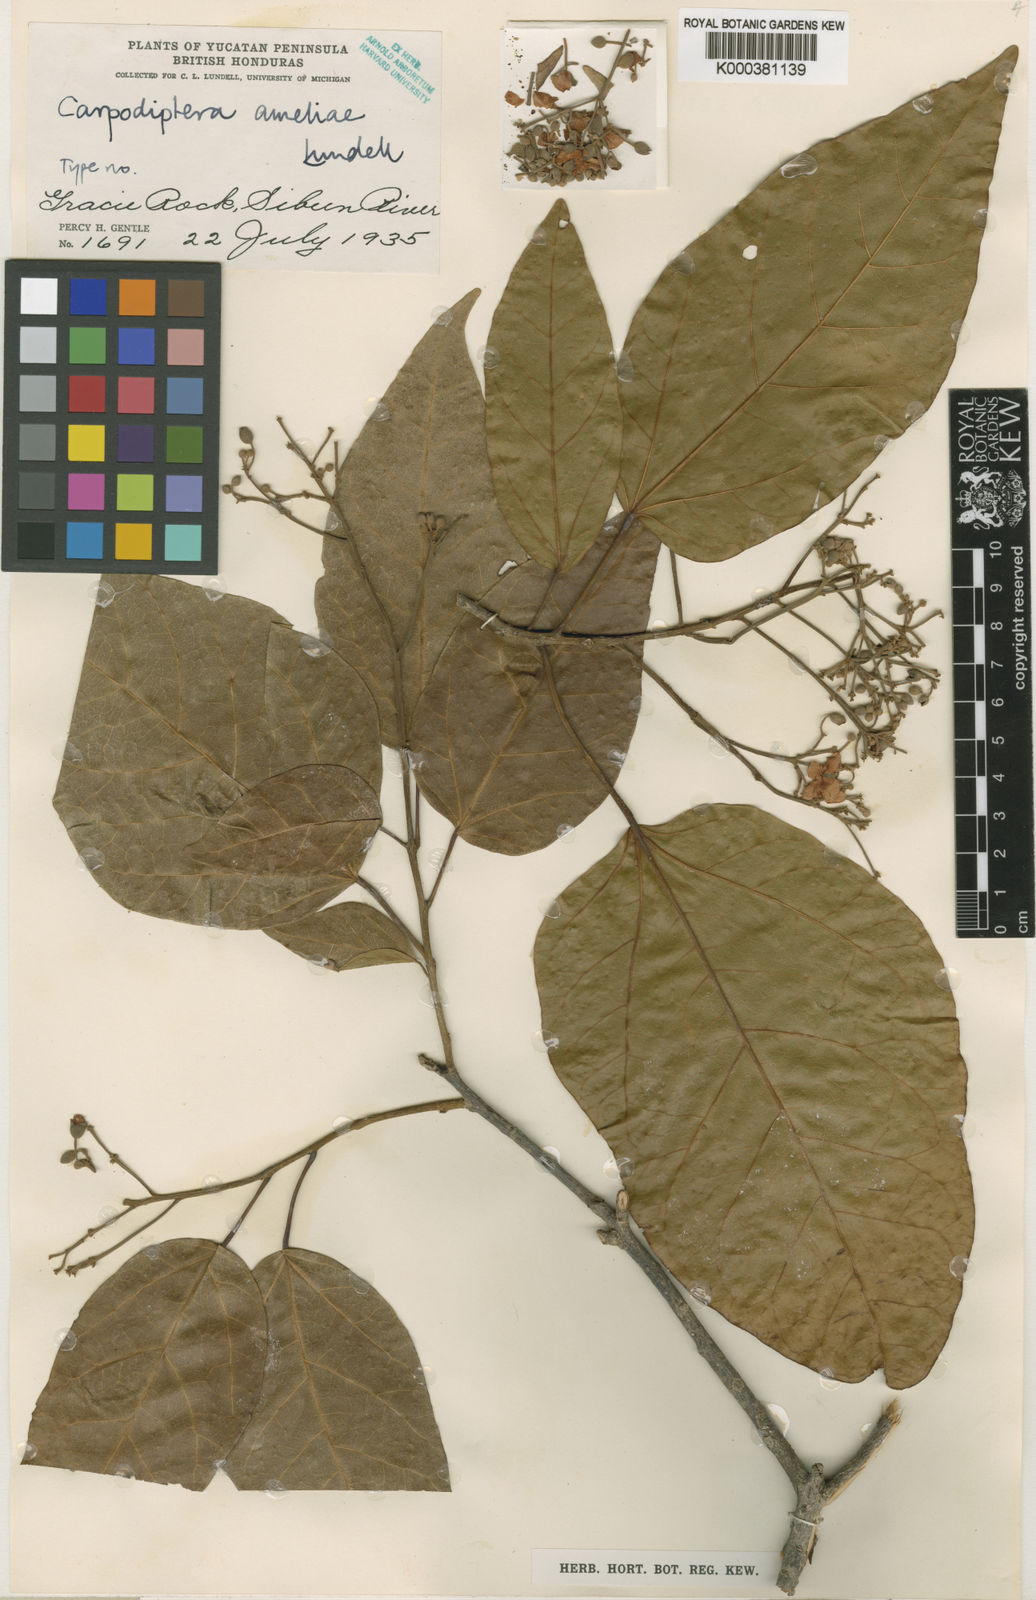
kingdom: Plantae
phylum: Tracheophyta
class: Magnoliopsida
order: Malvales
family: Malvaceae
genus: Berrya
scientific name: Berrya cubensis
